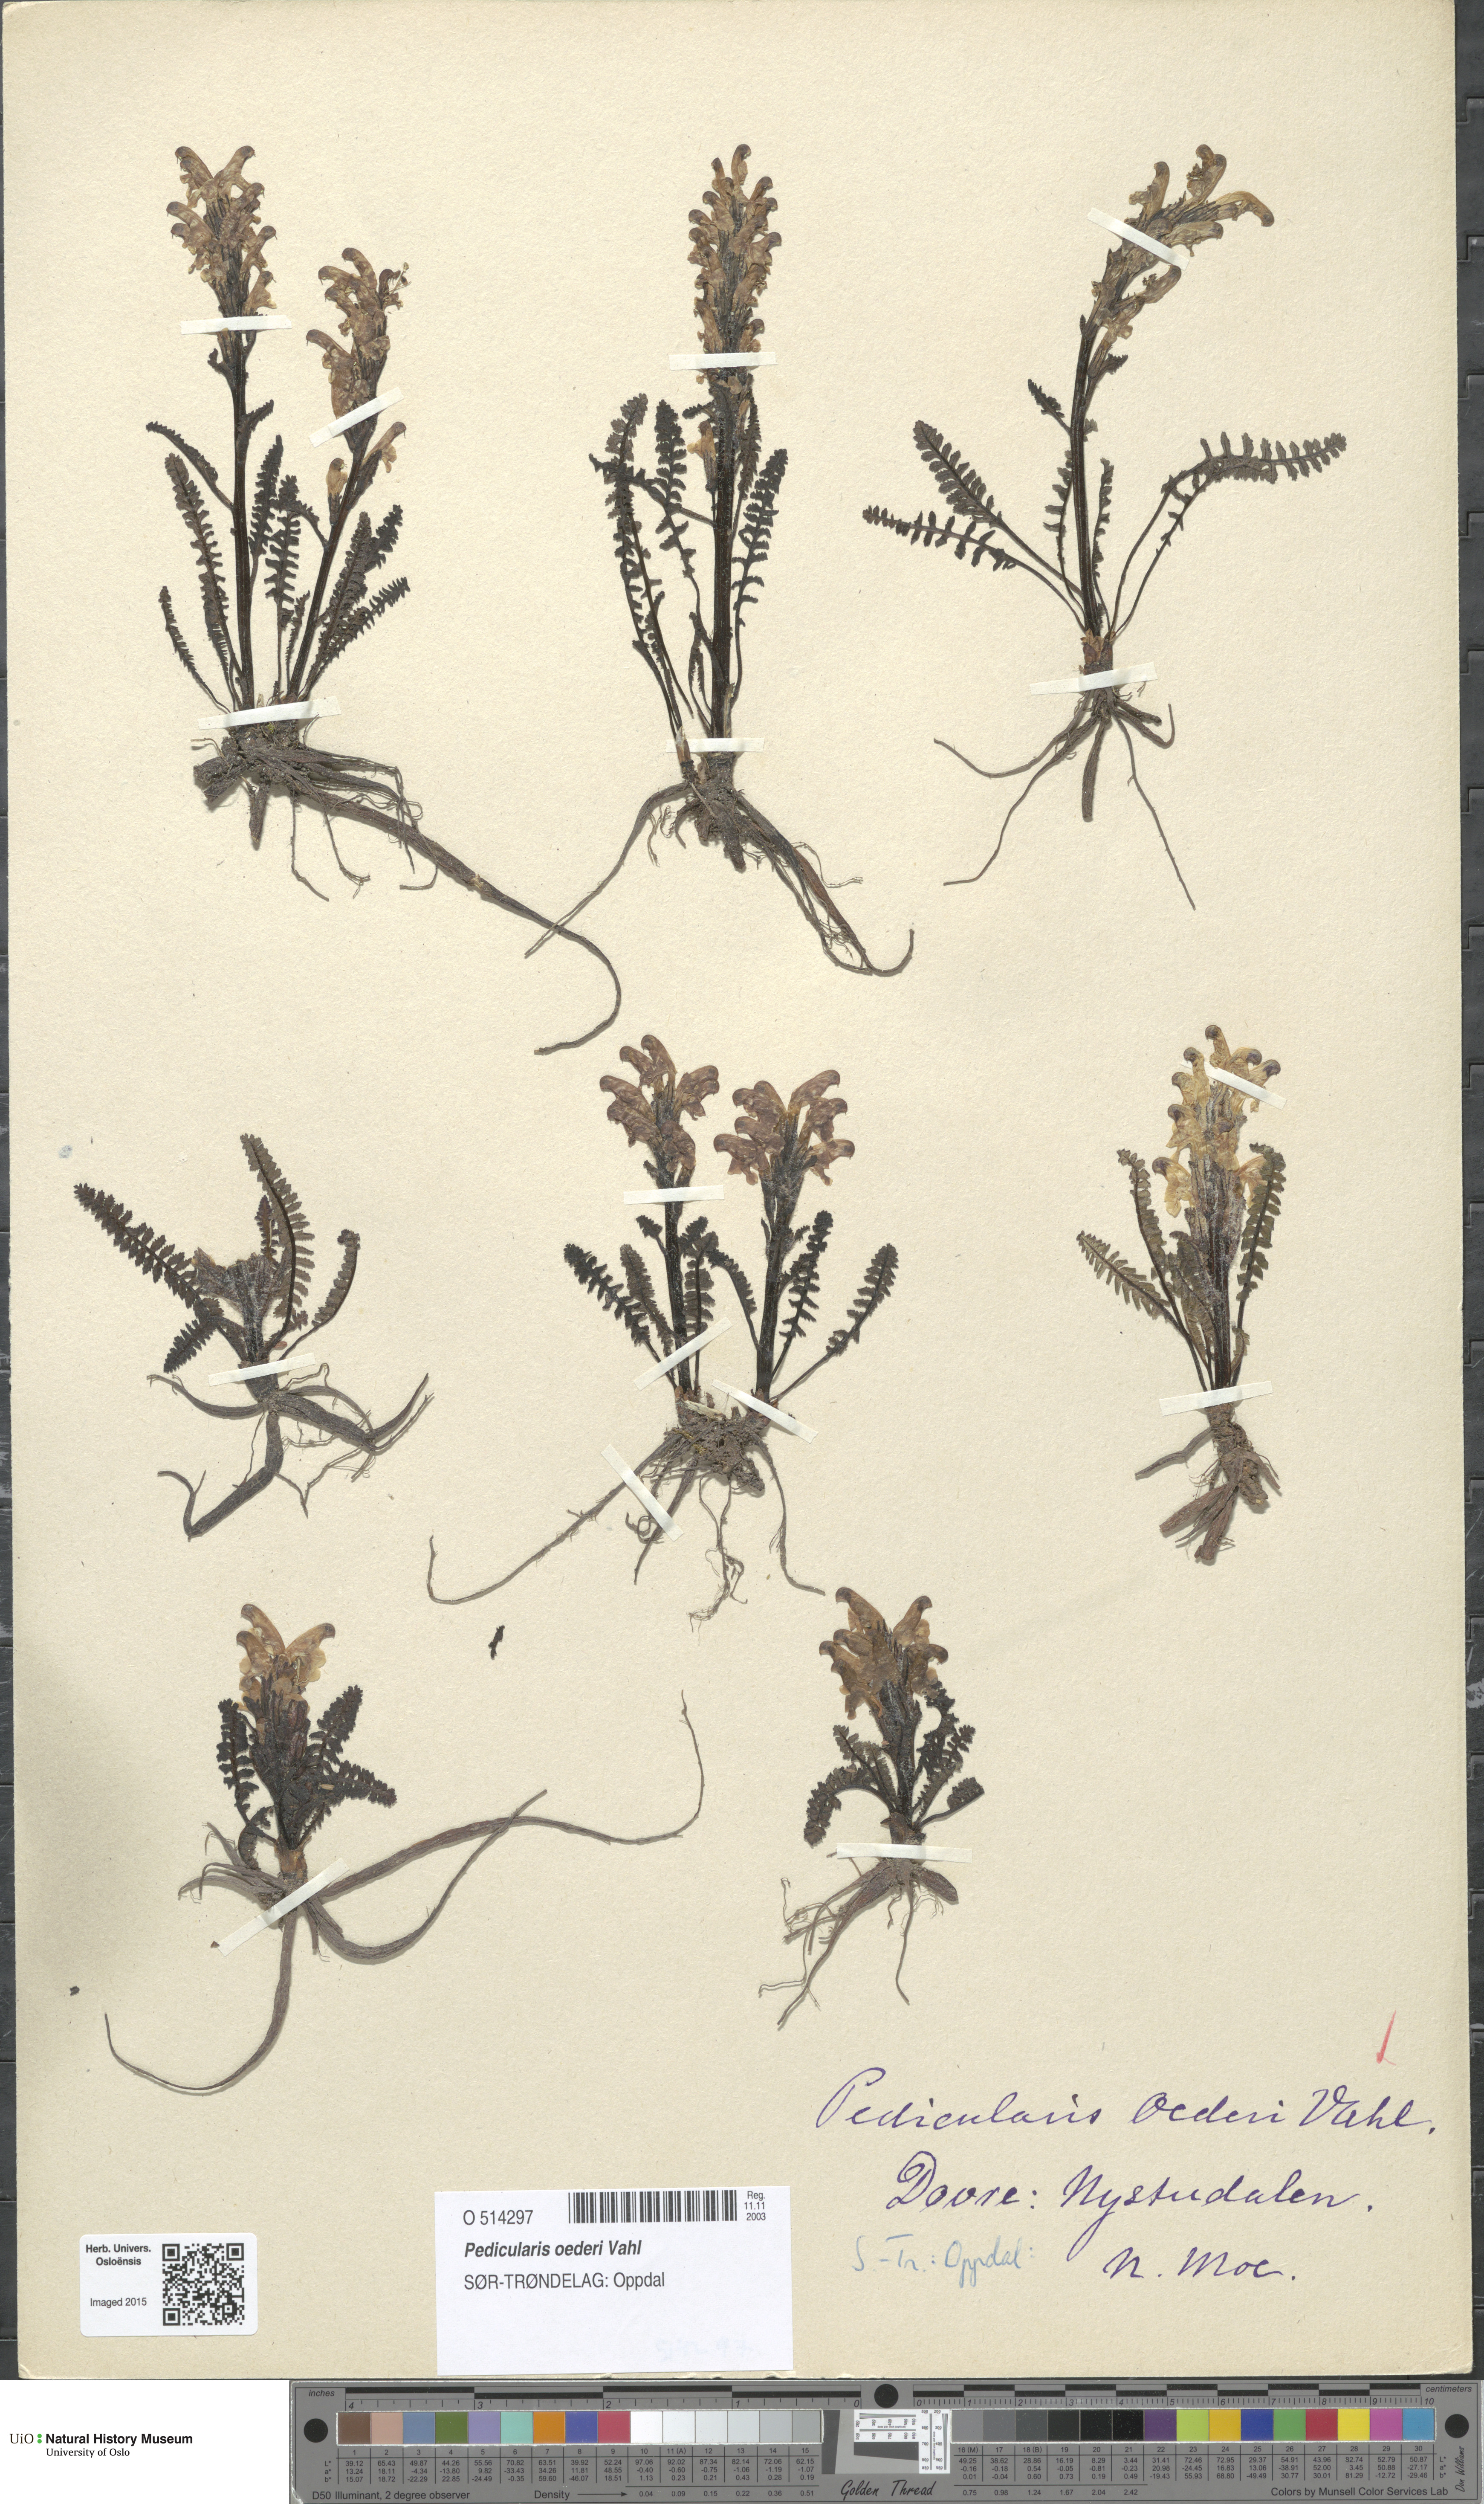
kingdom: Plantae
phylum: Tracheophyta
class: Magnoliopsida
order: Lamiales
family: Orobanchaceae
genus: Pedicularis
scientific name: Pedicularis oederi
